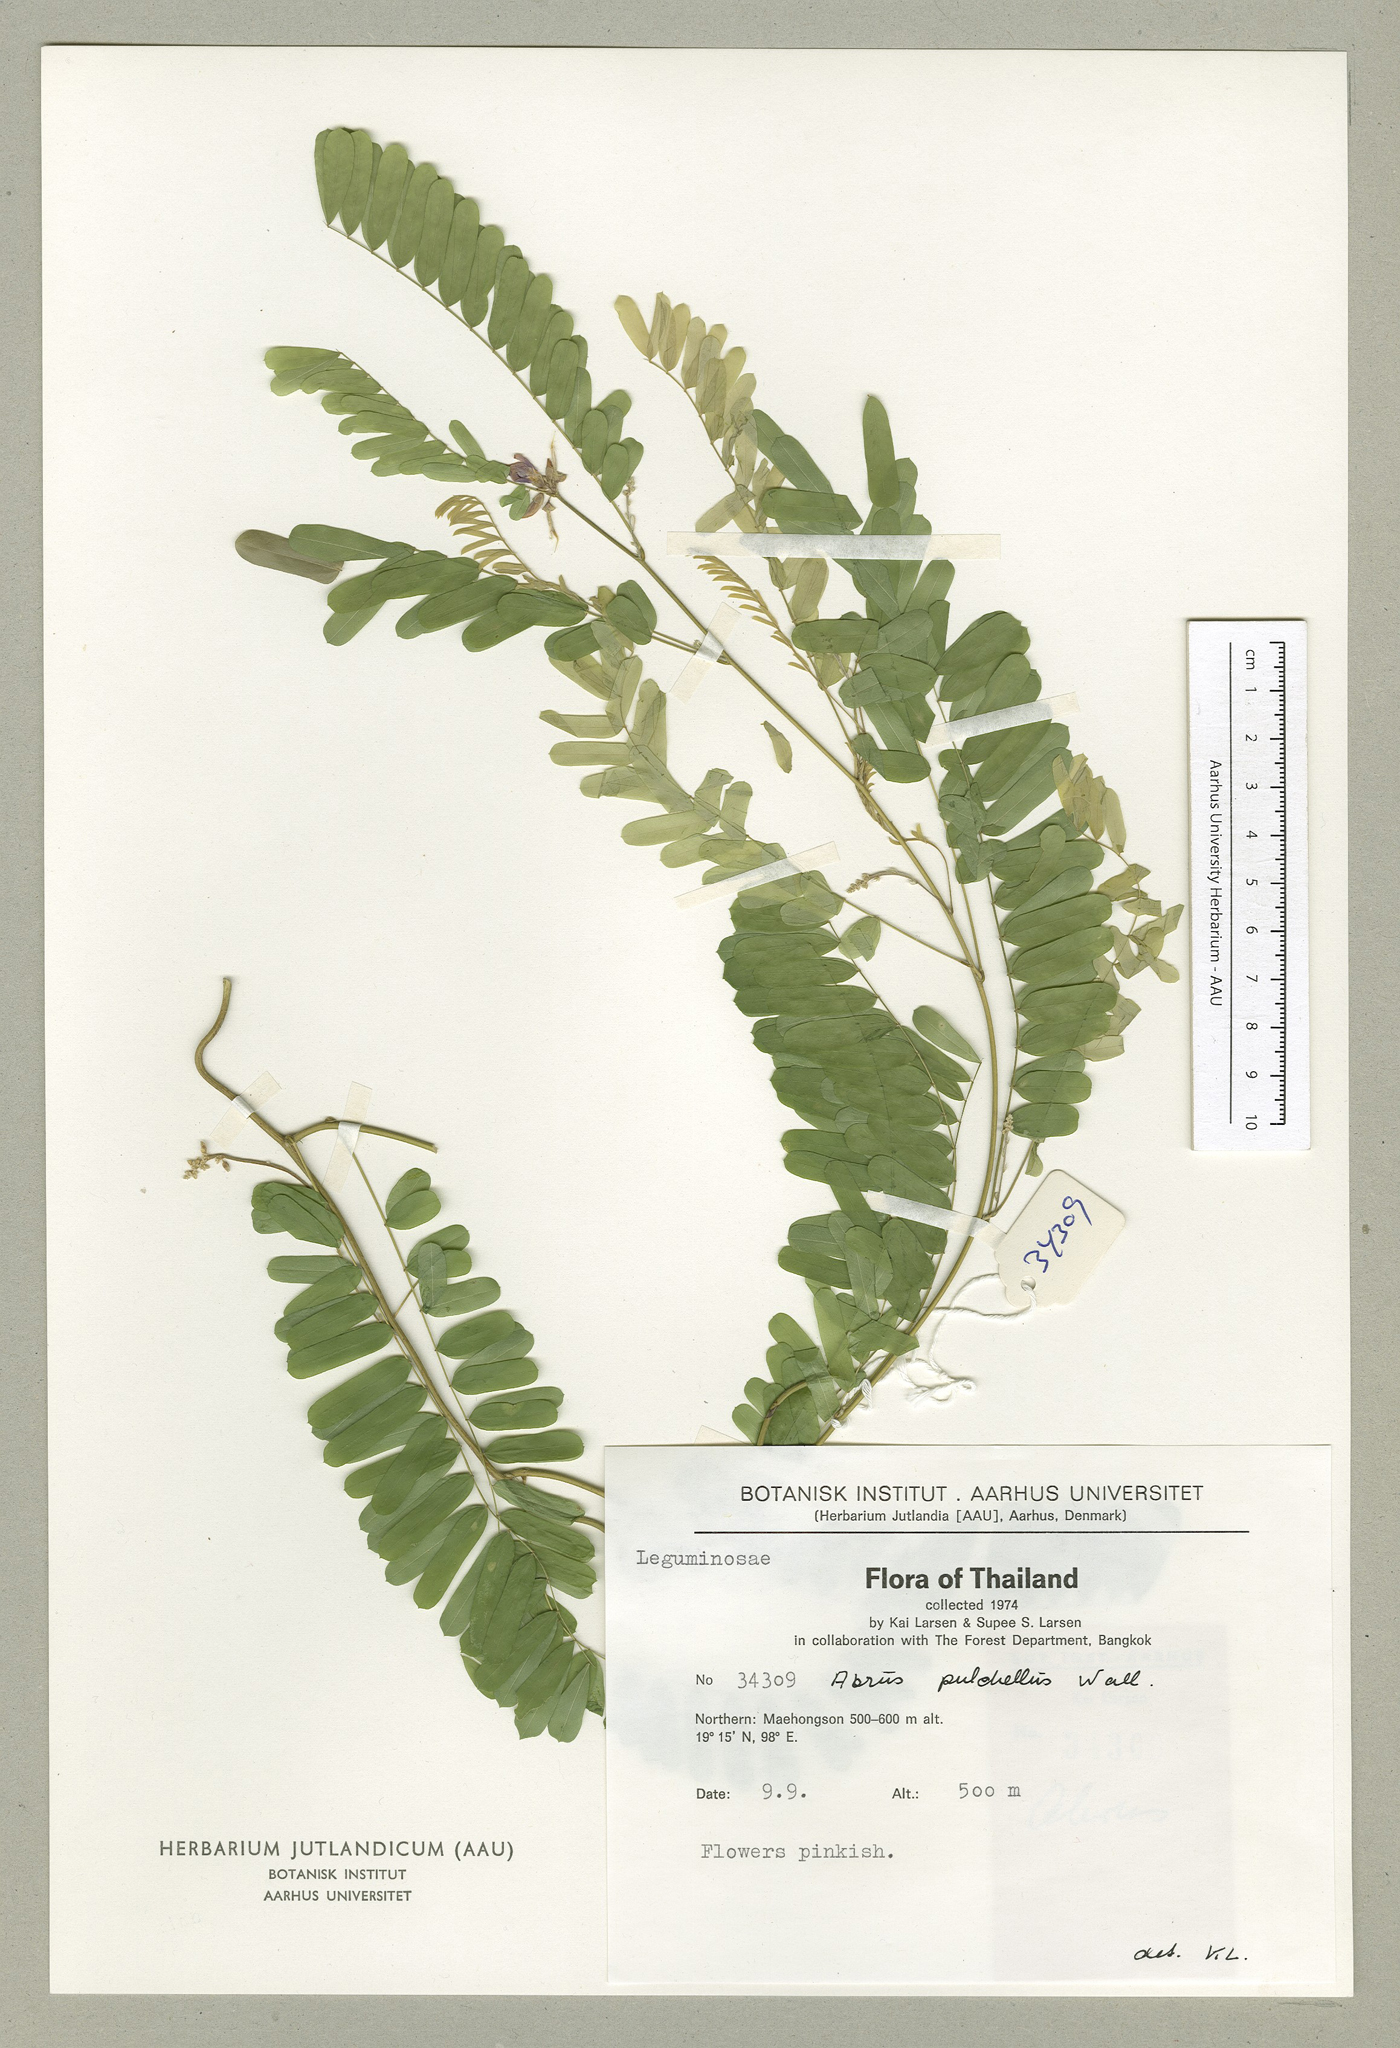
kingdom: Plantae
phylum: Tracheophyta
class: Magnoliopsida
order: Fabales
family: Fabaceae
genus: Abrus
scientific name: Abrus fruticulosus
